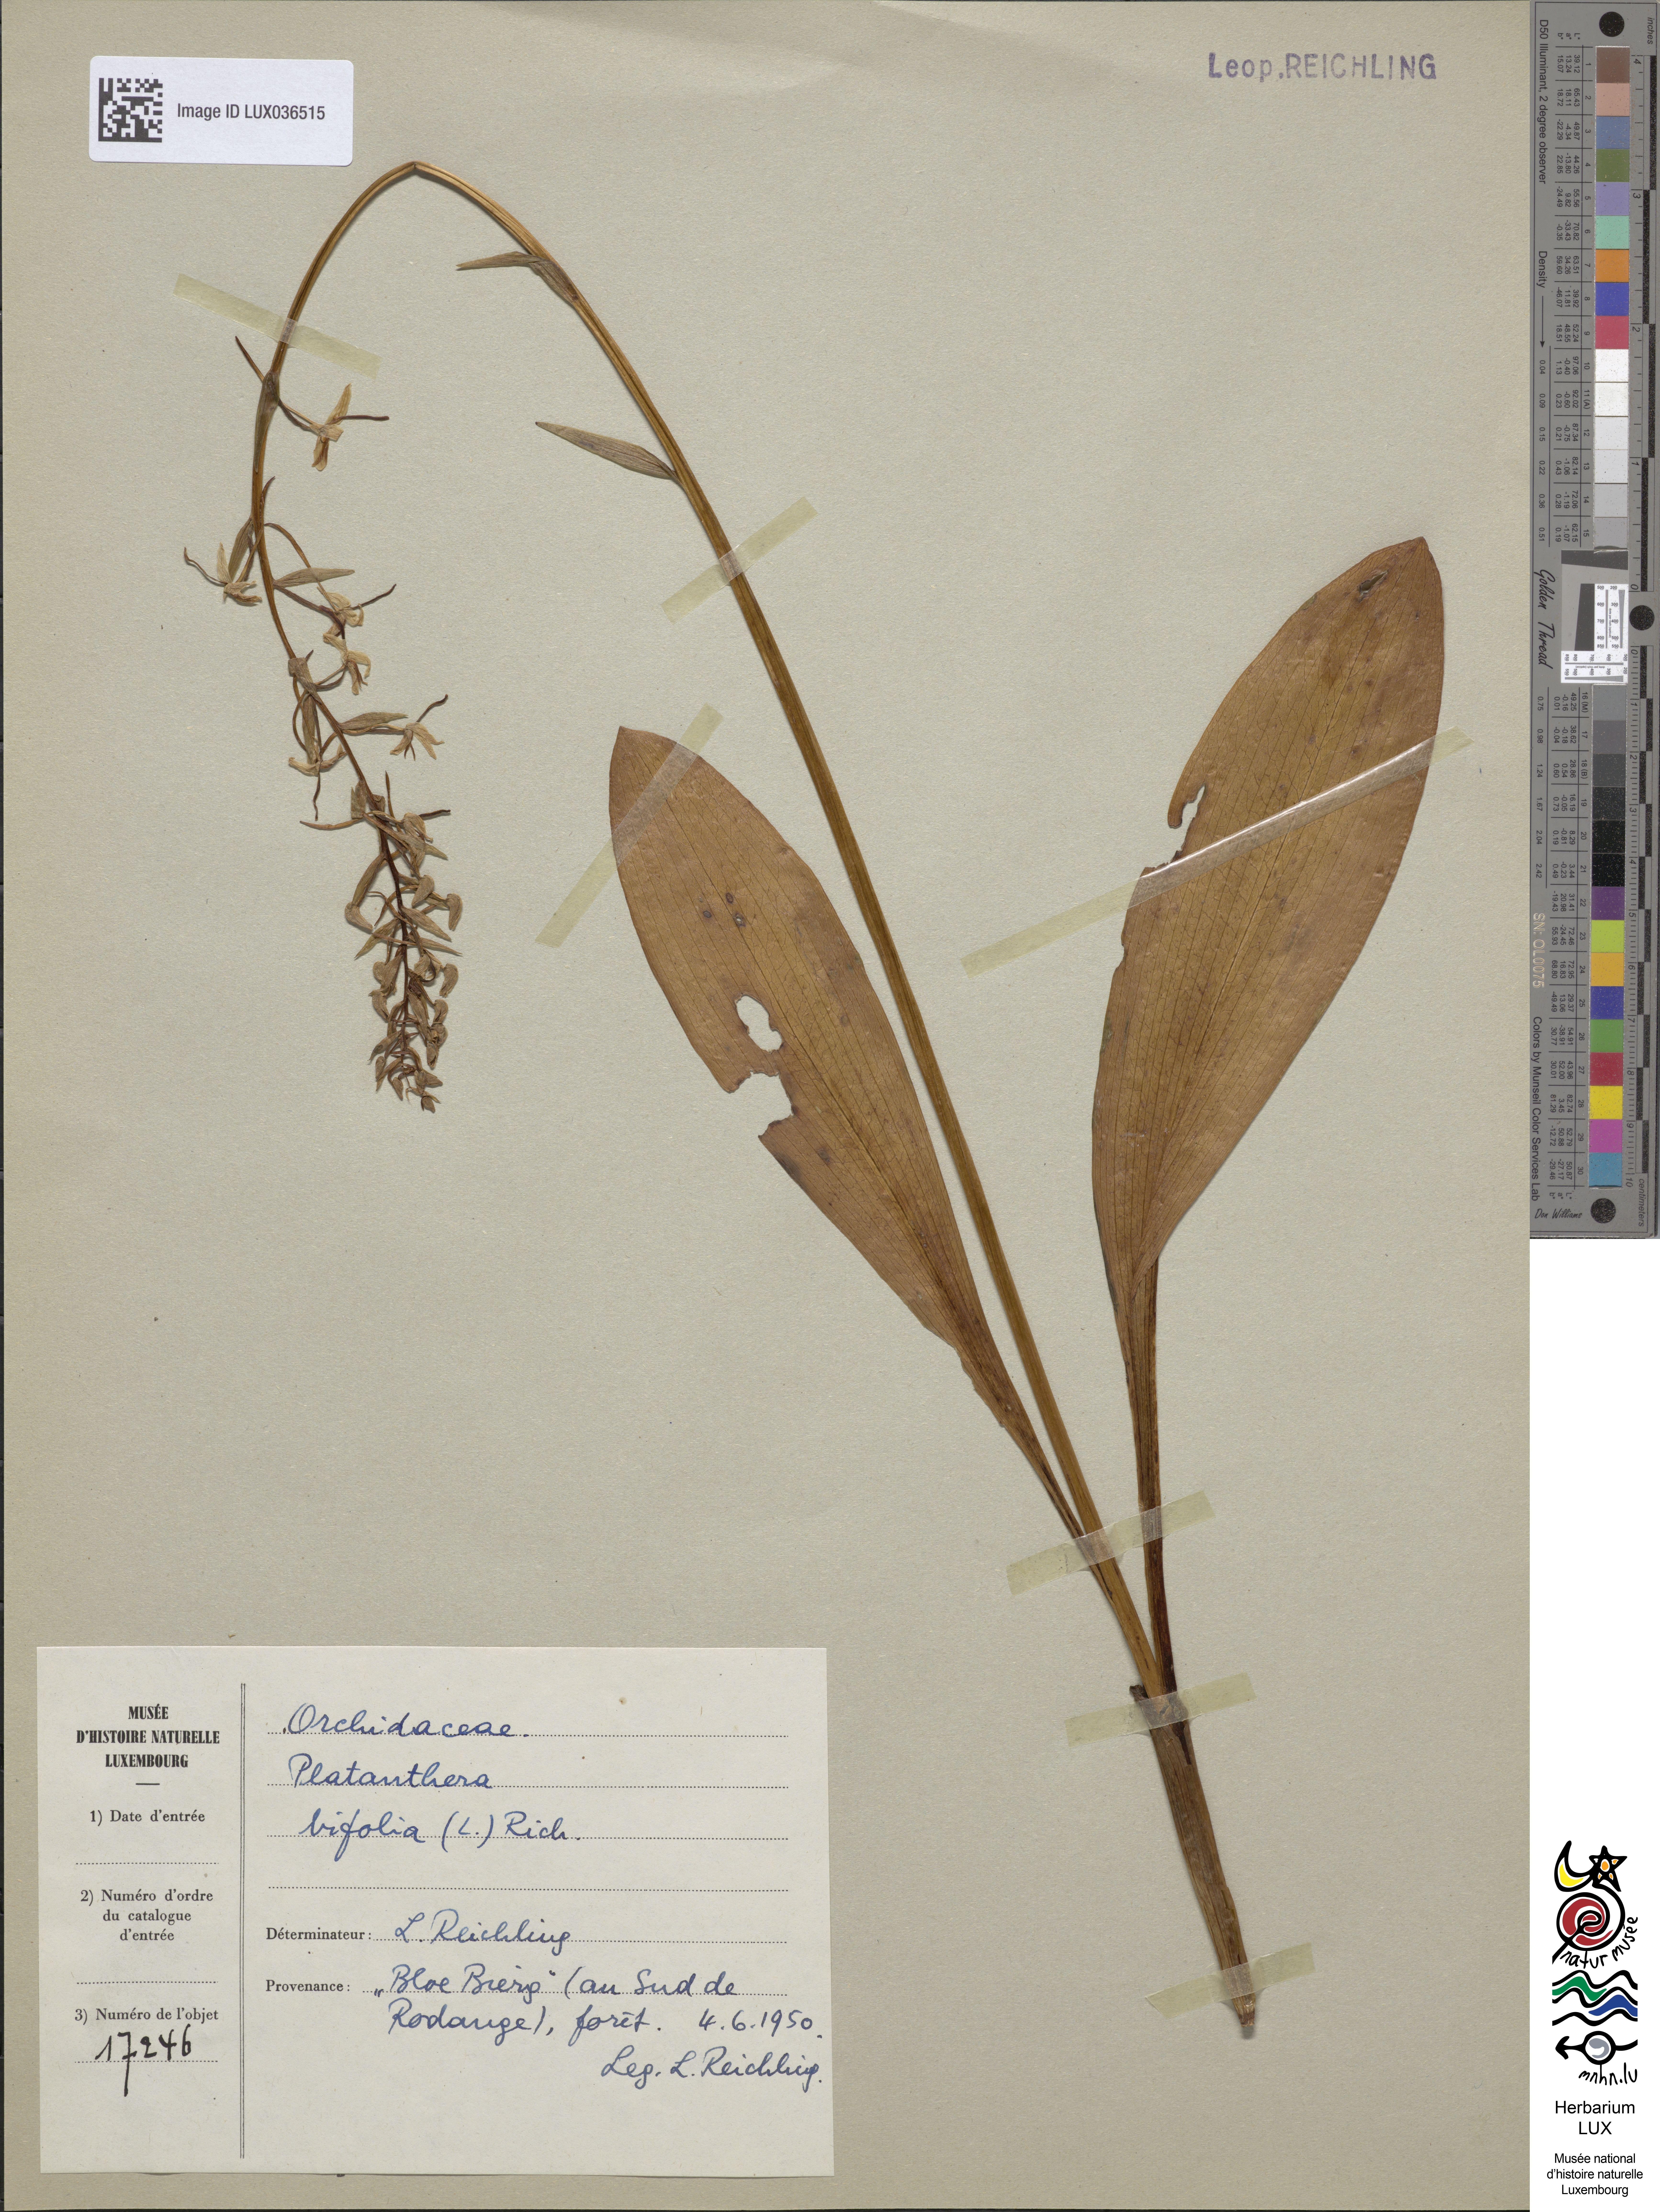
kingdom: Plantae
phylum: Tracheophyta
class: Liliopsida
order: Asparagales
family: Orchidaceae
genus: Platanthera
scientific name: Platanthera bifolia
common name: Lesser butterfly-orchid
